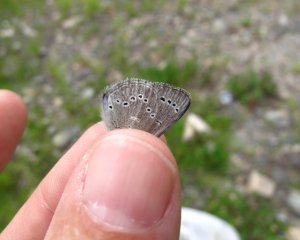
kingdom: Animalia
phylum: Arthropoda
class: Insecta
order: Lepidoptera
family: Lycaenidae
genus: Glaucopsyche
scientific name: Glaucopsyche lygdamus
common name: Silvery Blue
